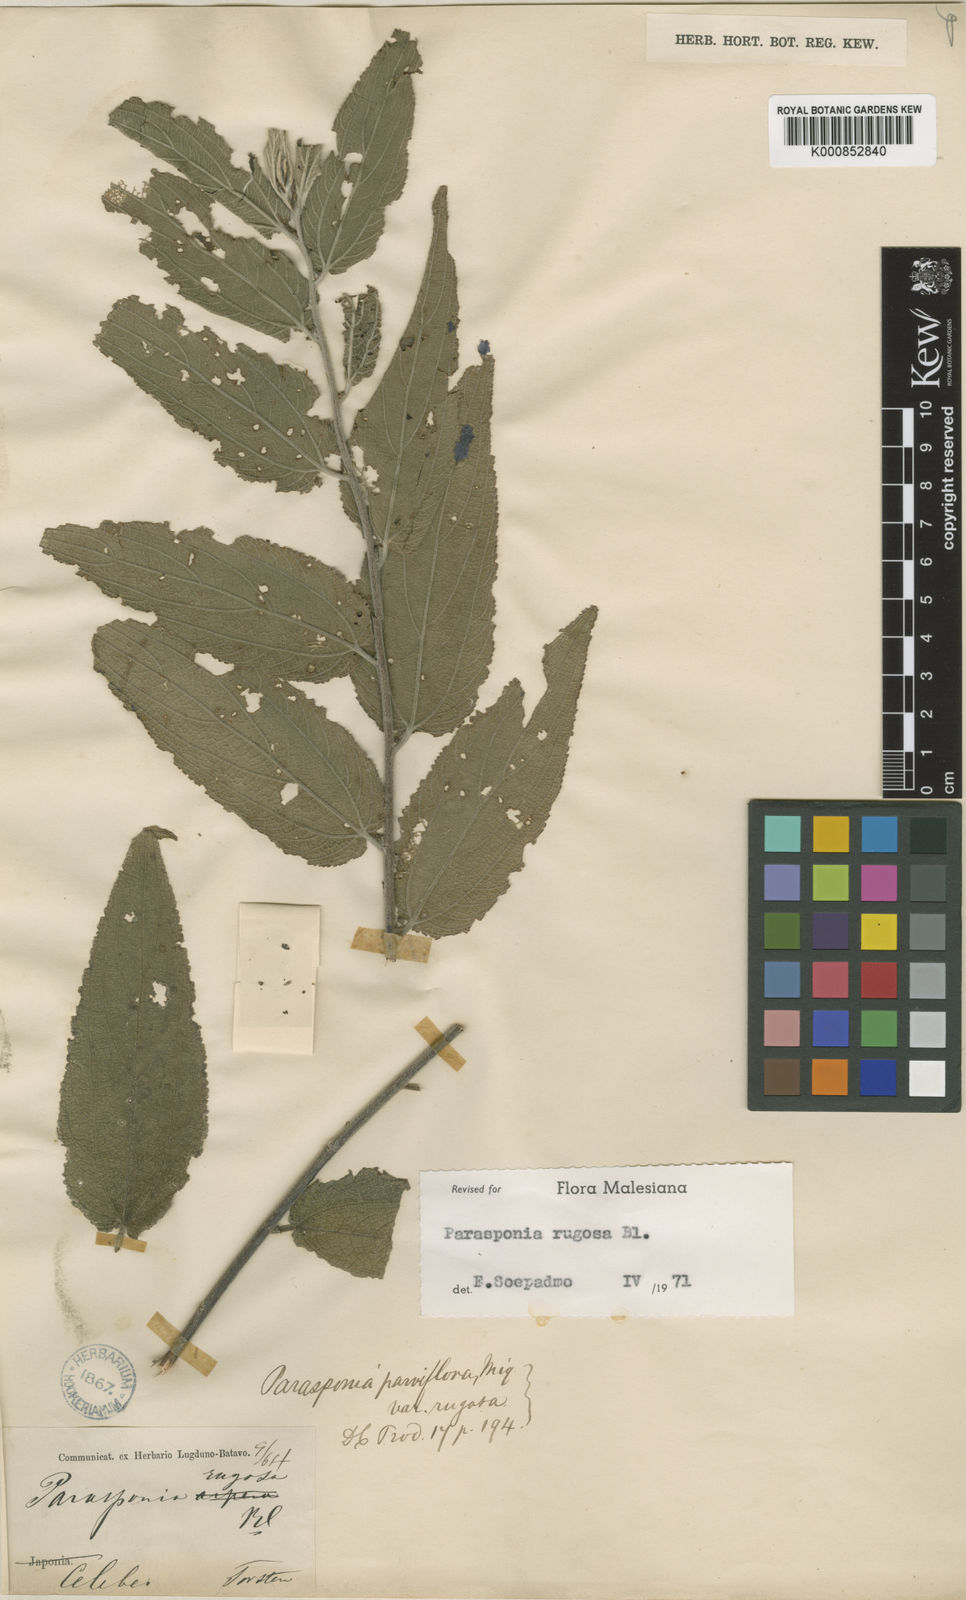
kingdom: Plantae
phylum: Tracheophyta
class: Magnoliopsida
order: Rosales
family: Cannabaceae
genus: Trema
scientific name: Trema eurhynchum
